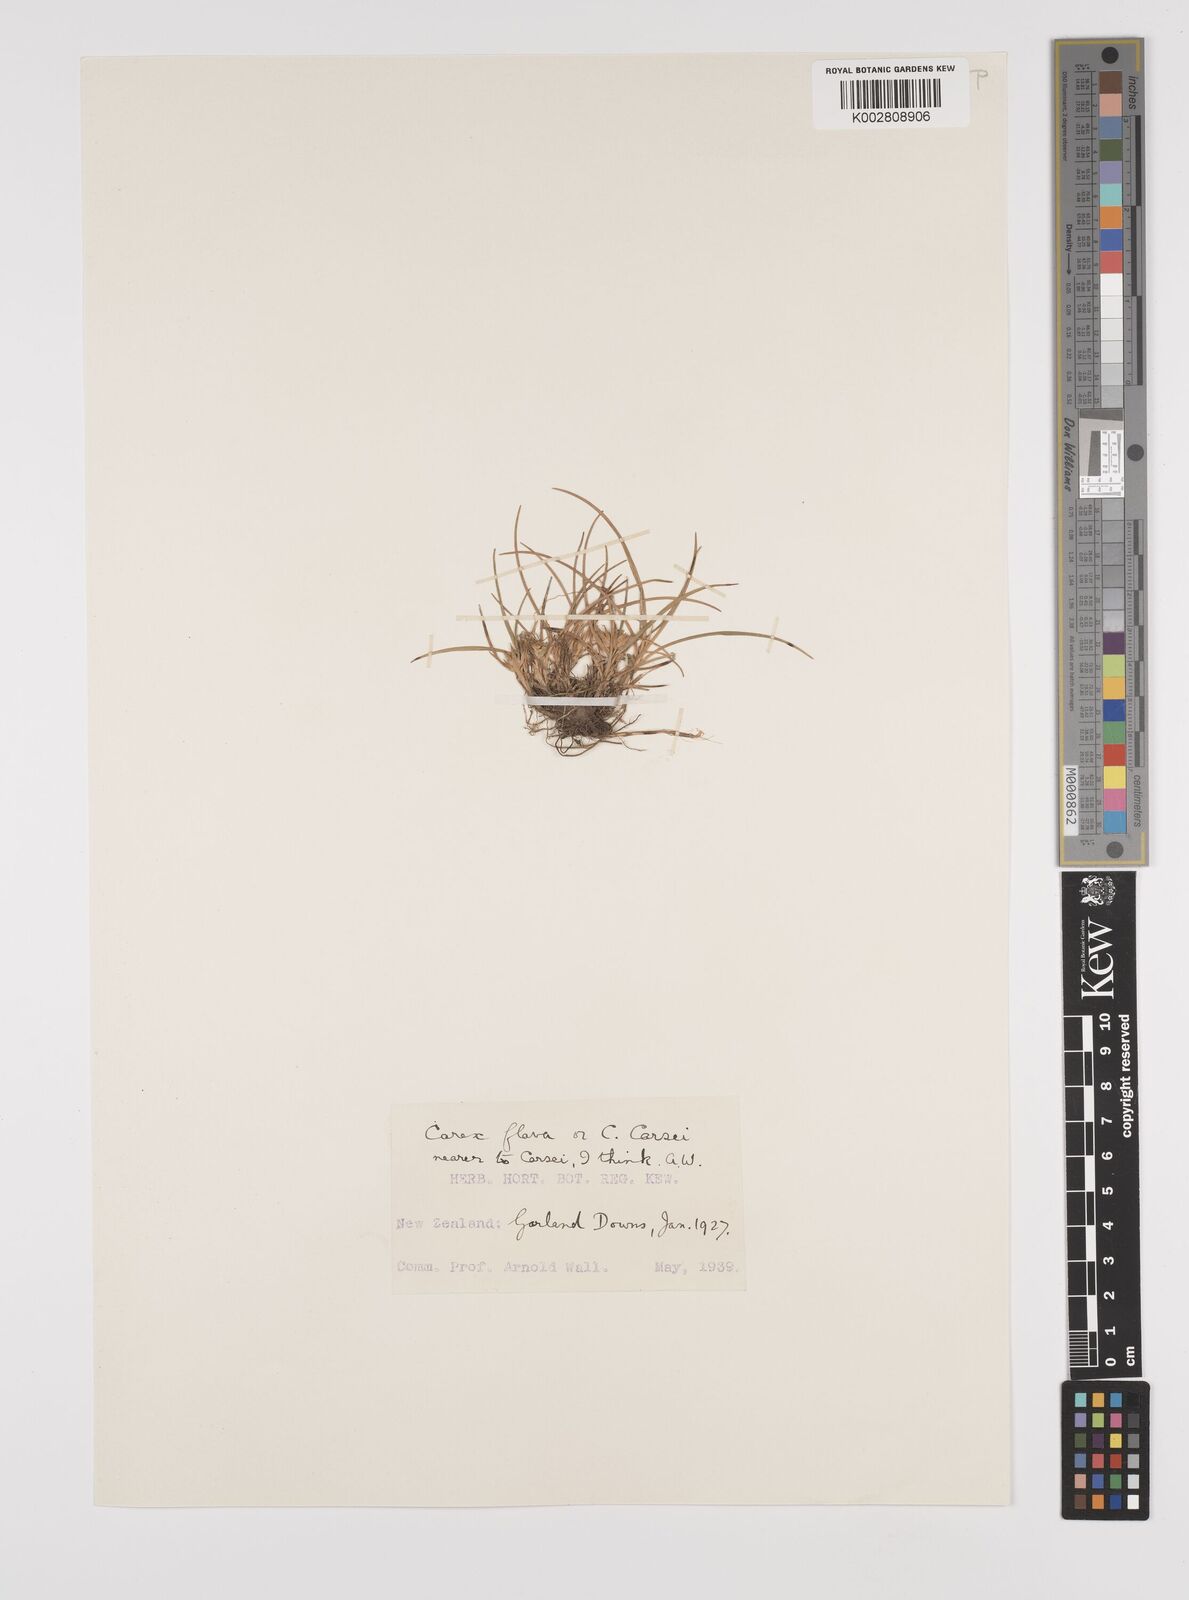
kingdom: Plantae
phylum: Tracheophyta
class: Liliopsida
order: Poales
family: Cyperaceae
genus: Carex
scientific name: Carex michauxiana
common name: Michaux's sedge
